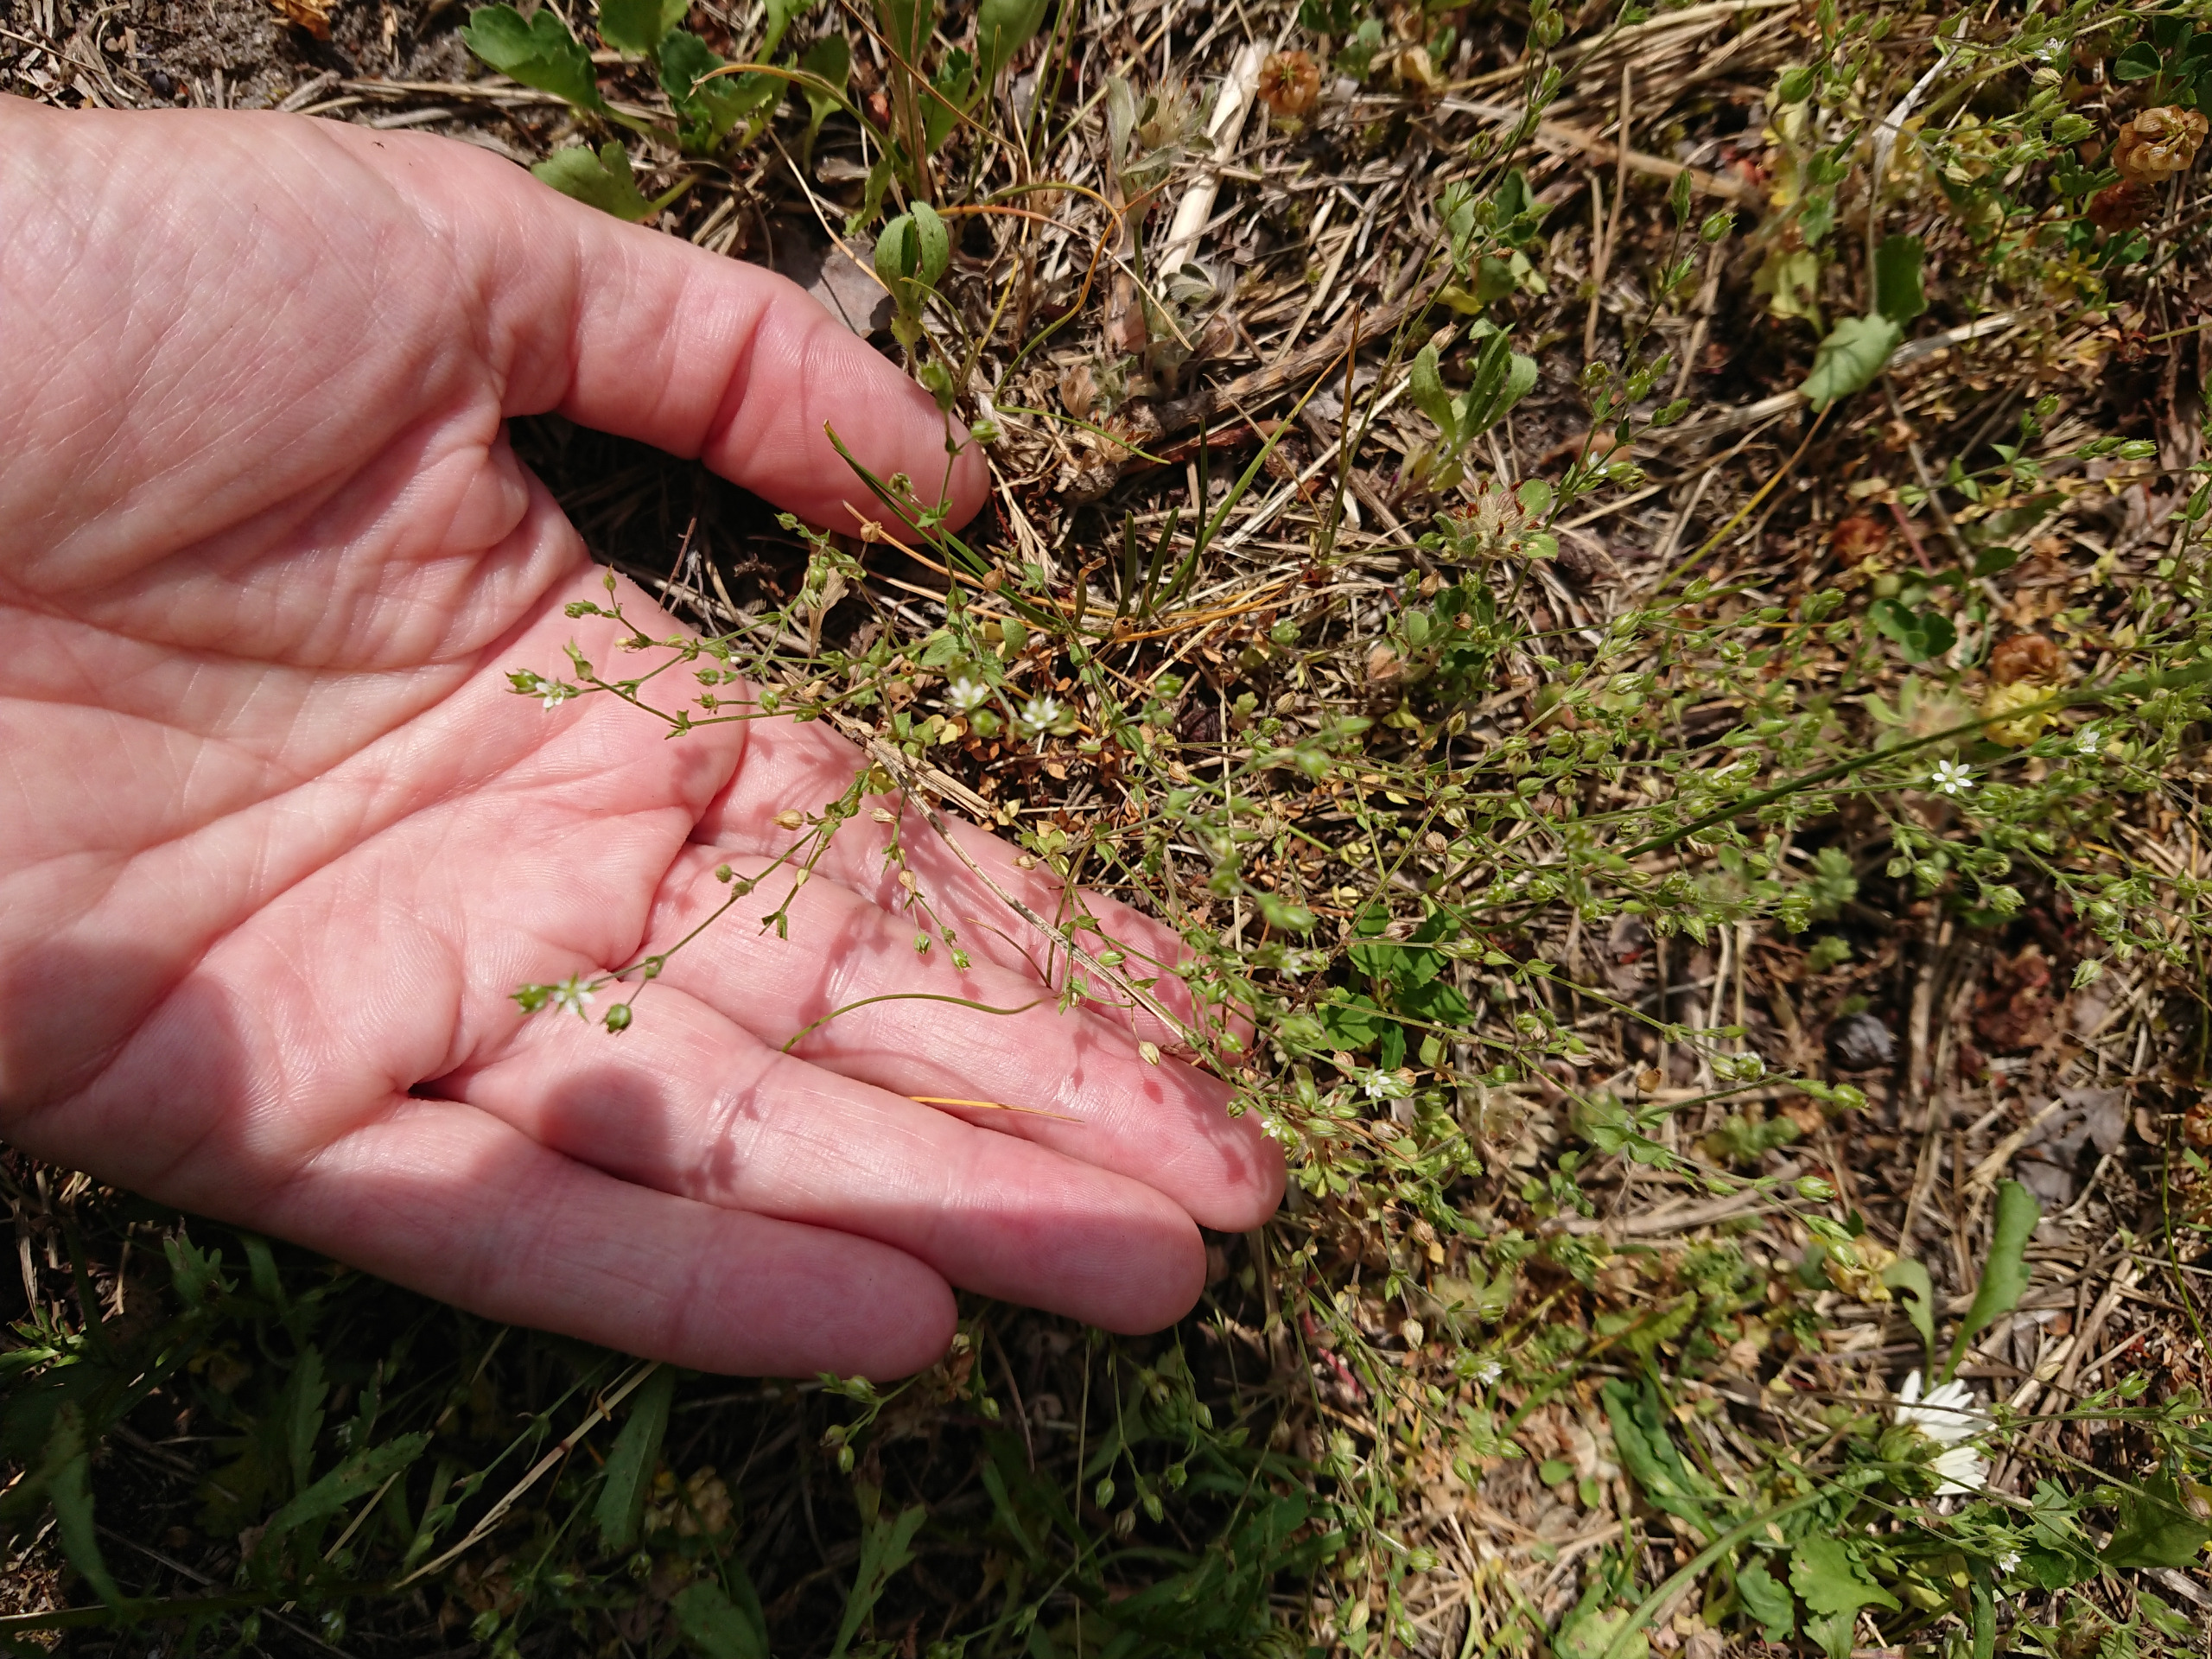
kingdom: Plantae
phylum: Tracheophyta
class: Magnoliopsida
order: Caryophyllales
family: Caryophyllaceae
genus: Arenaria
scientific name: Arenaria serpyllifolia
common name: Almindelig markarve (underart)
